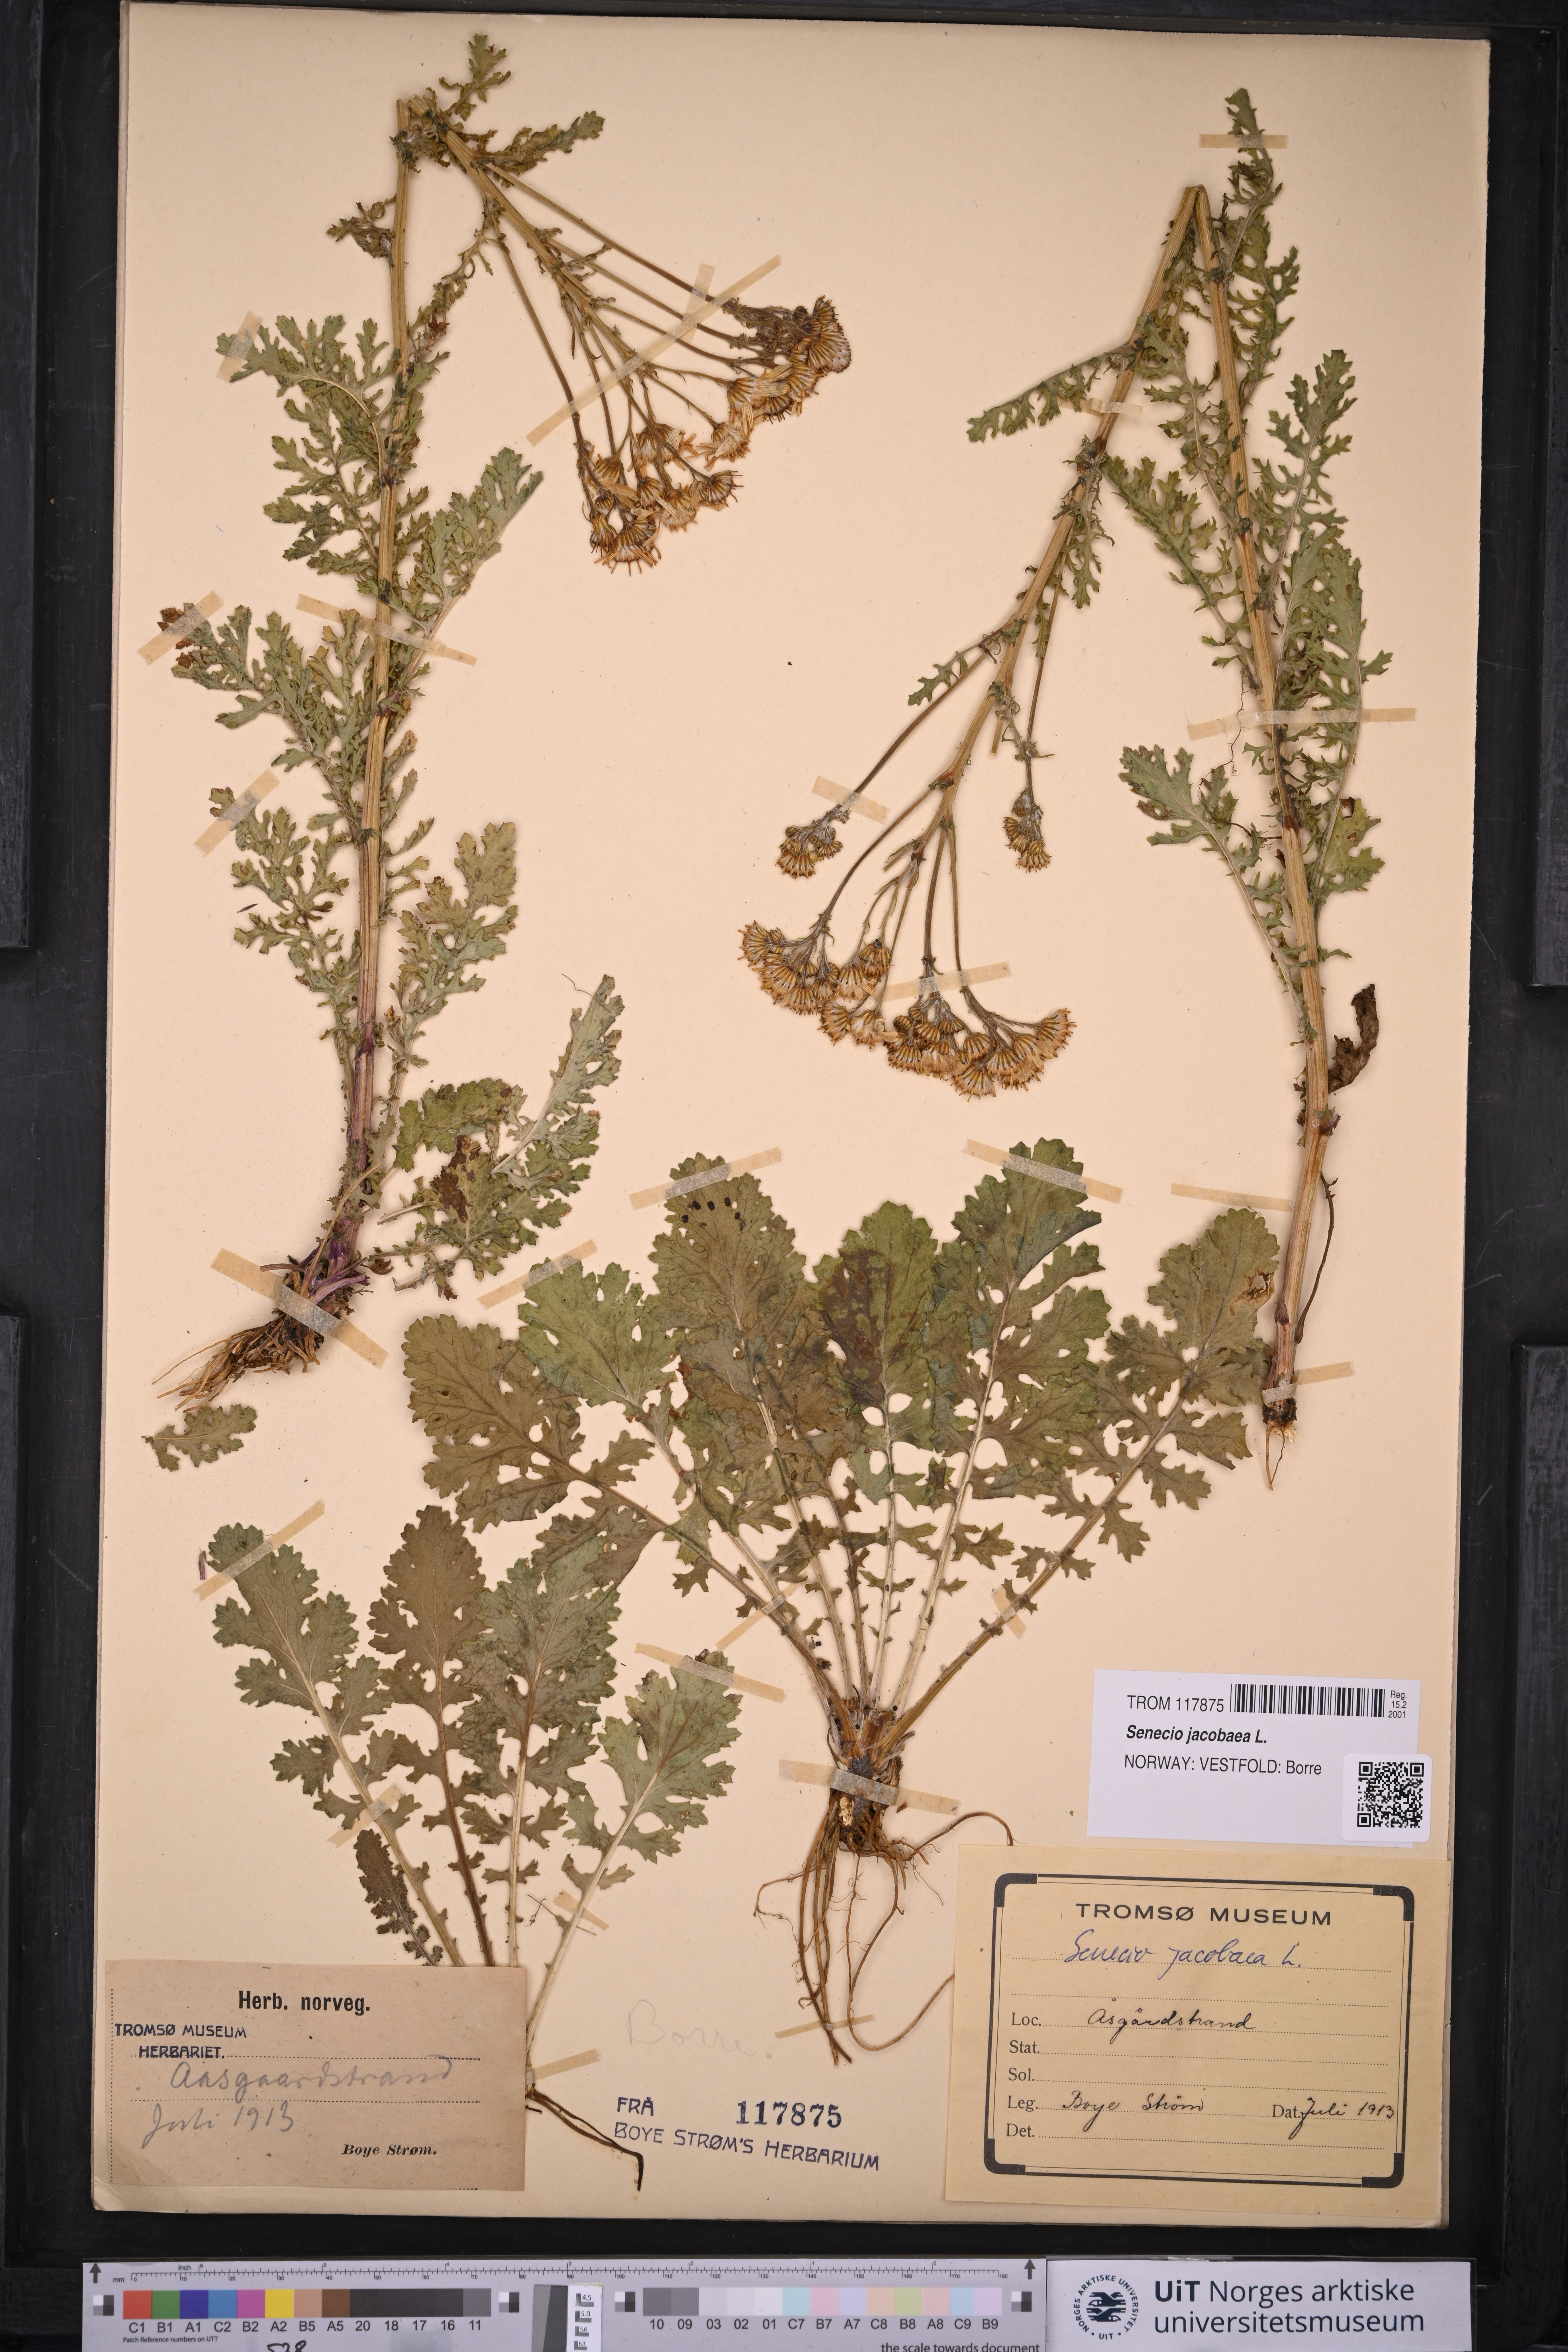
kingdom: Plantae
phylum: Tracheophyta
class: Magnoliopsida
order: Asterales
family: Asteraceae
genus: Jacobaea
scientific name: Jacobaea vulgaris
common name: Stinking willie
